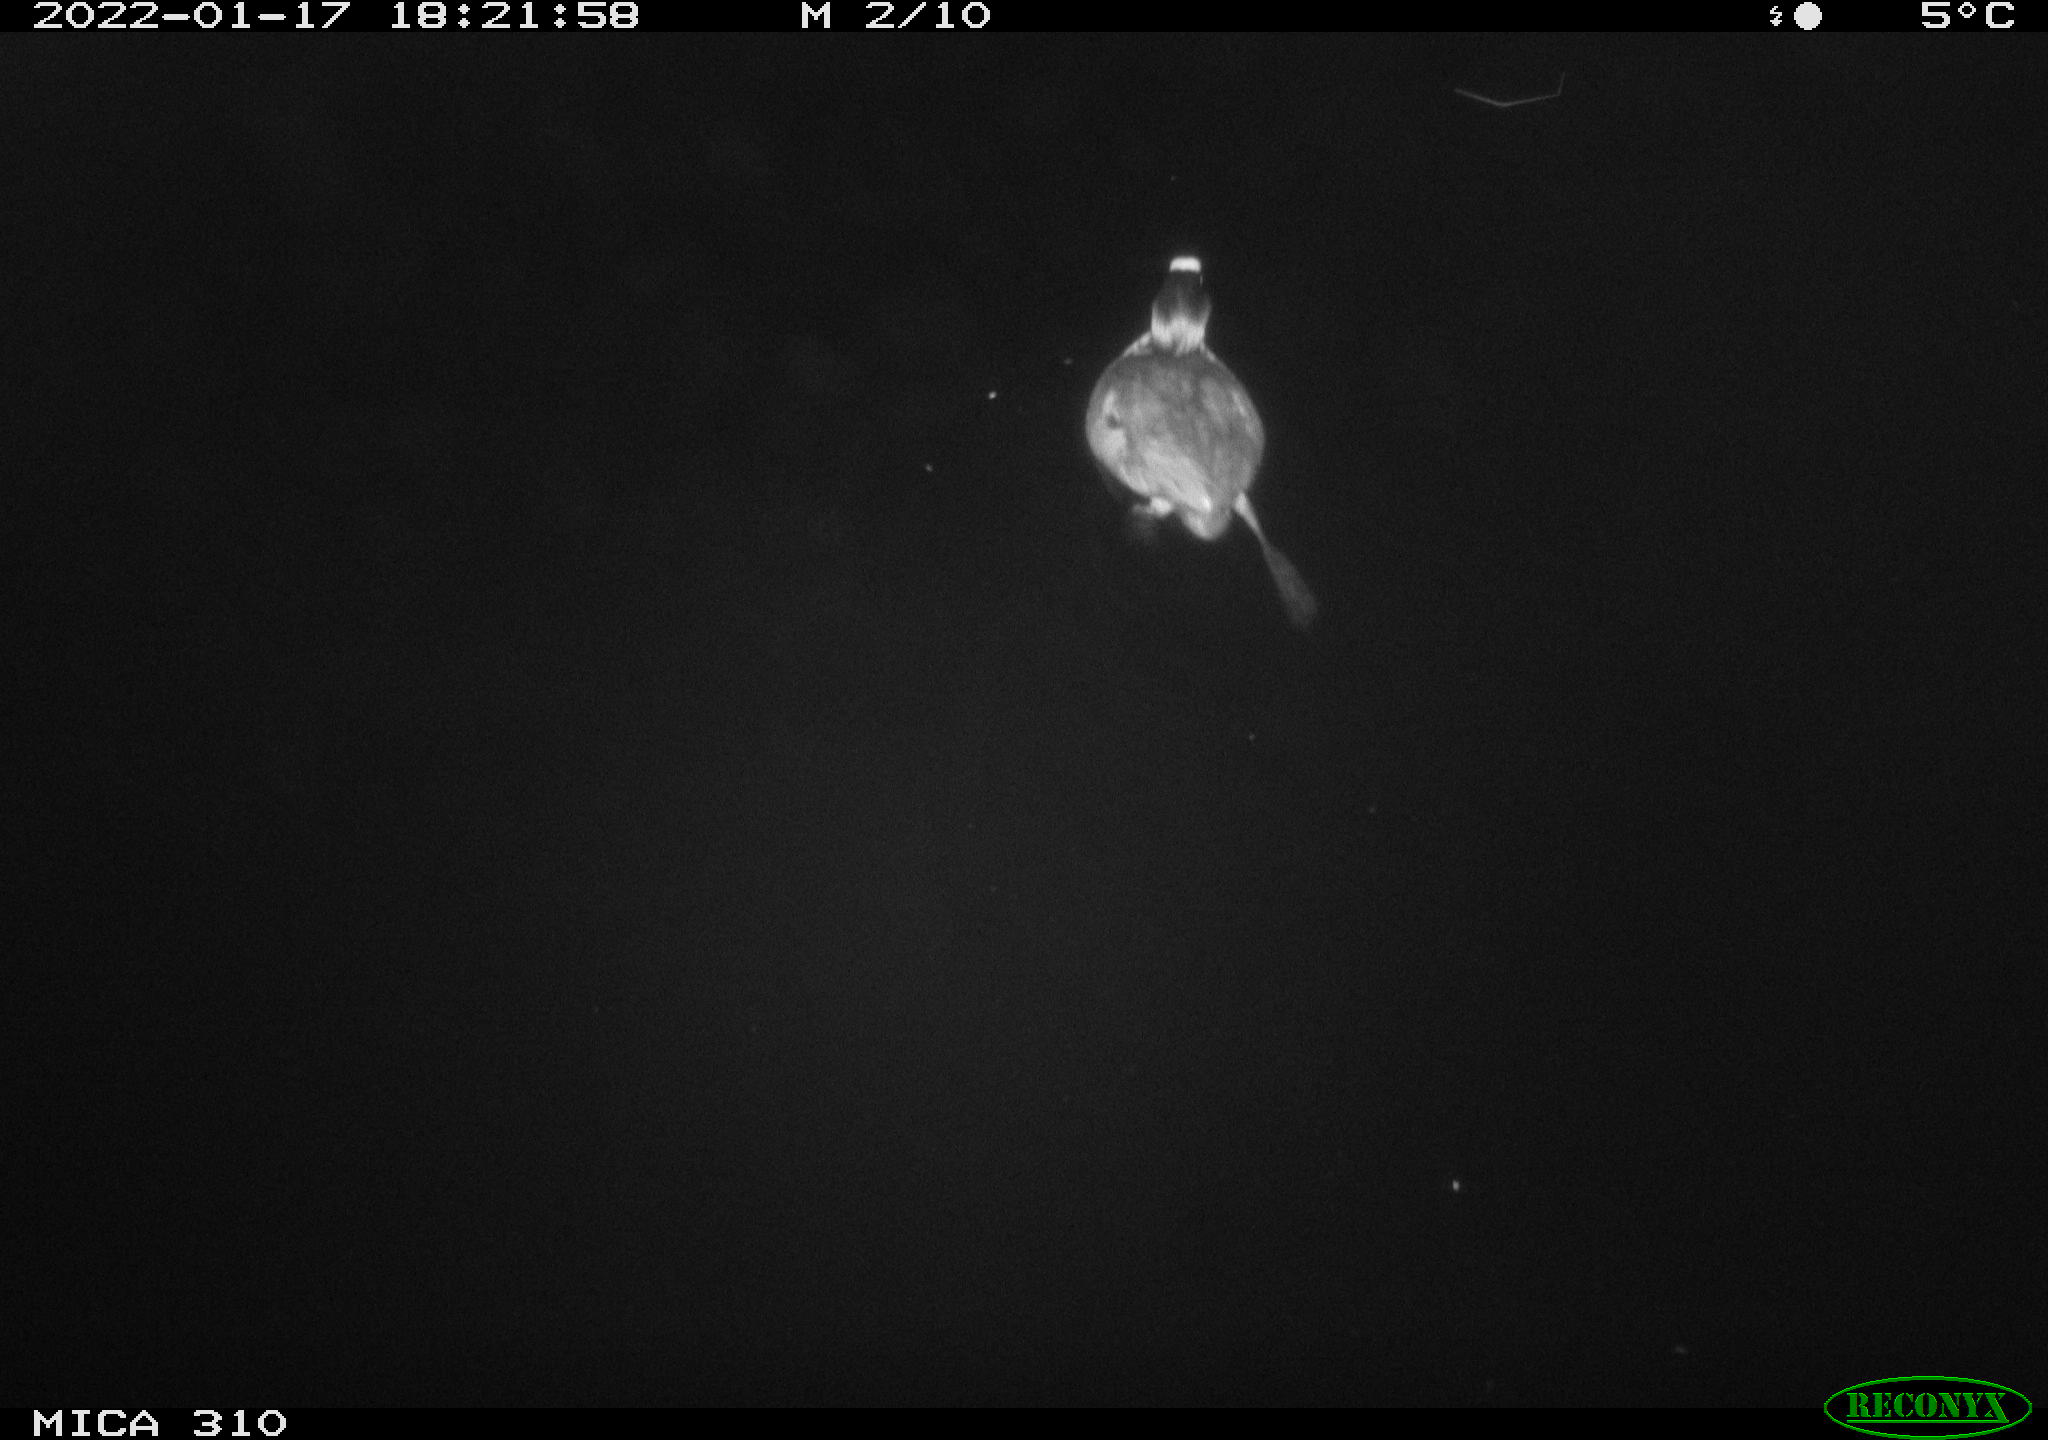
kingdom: Animalia
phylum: Chordata
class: Aves
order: Gruiformes
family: Rallidae
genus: Fulica
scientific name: Fulica atra
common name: Eurasian coot
